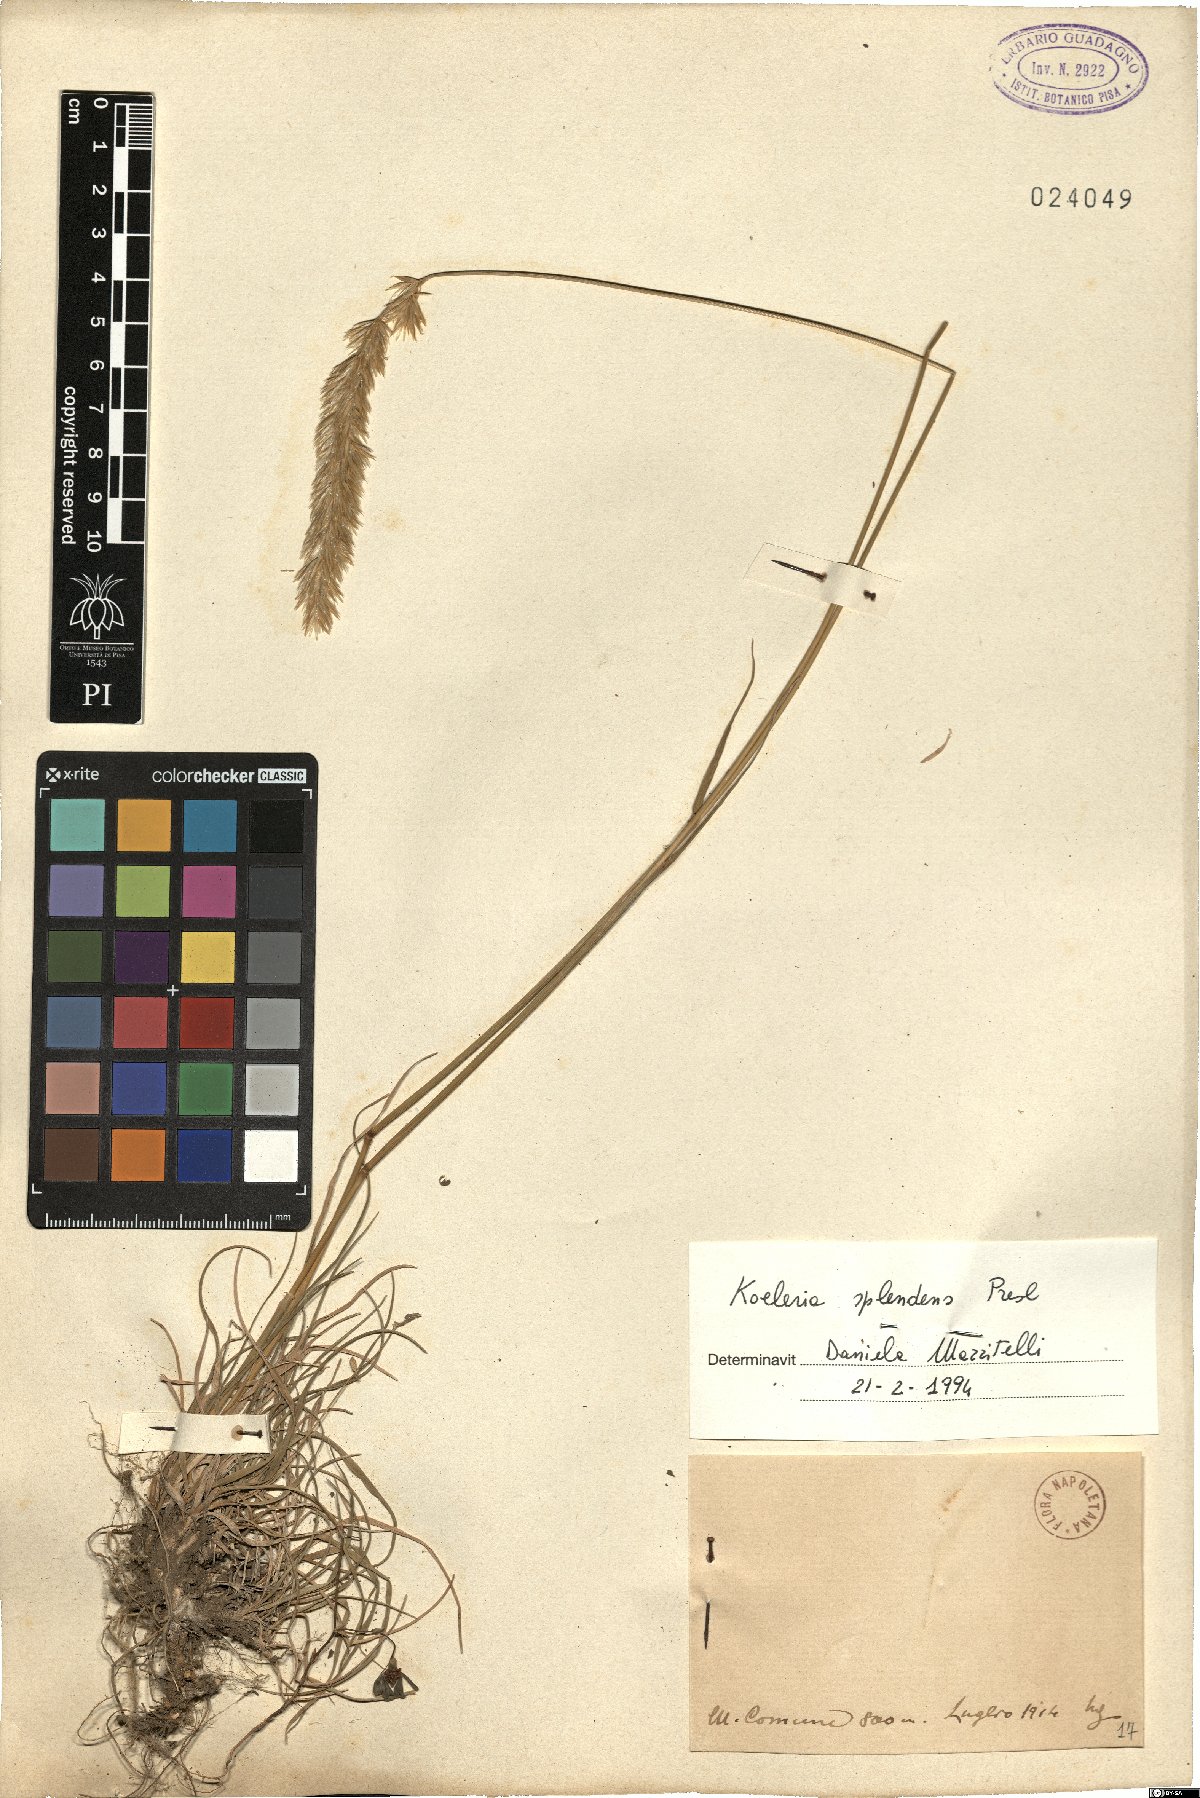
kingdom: Plantae
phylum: Tracheophyta
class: Liliopsida
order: Poales
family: Poaceae
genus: Koeleria
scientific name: Koeleria splendens
